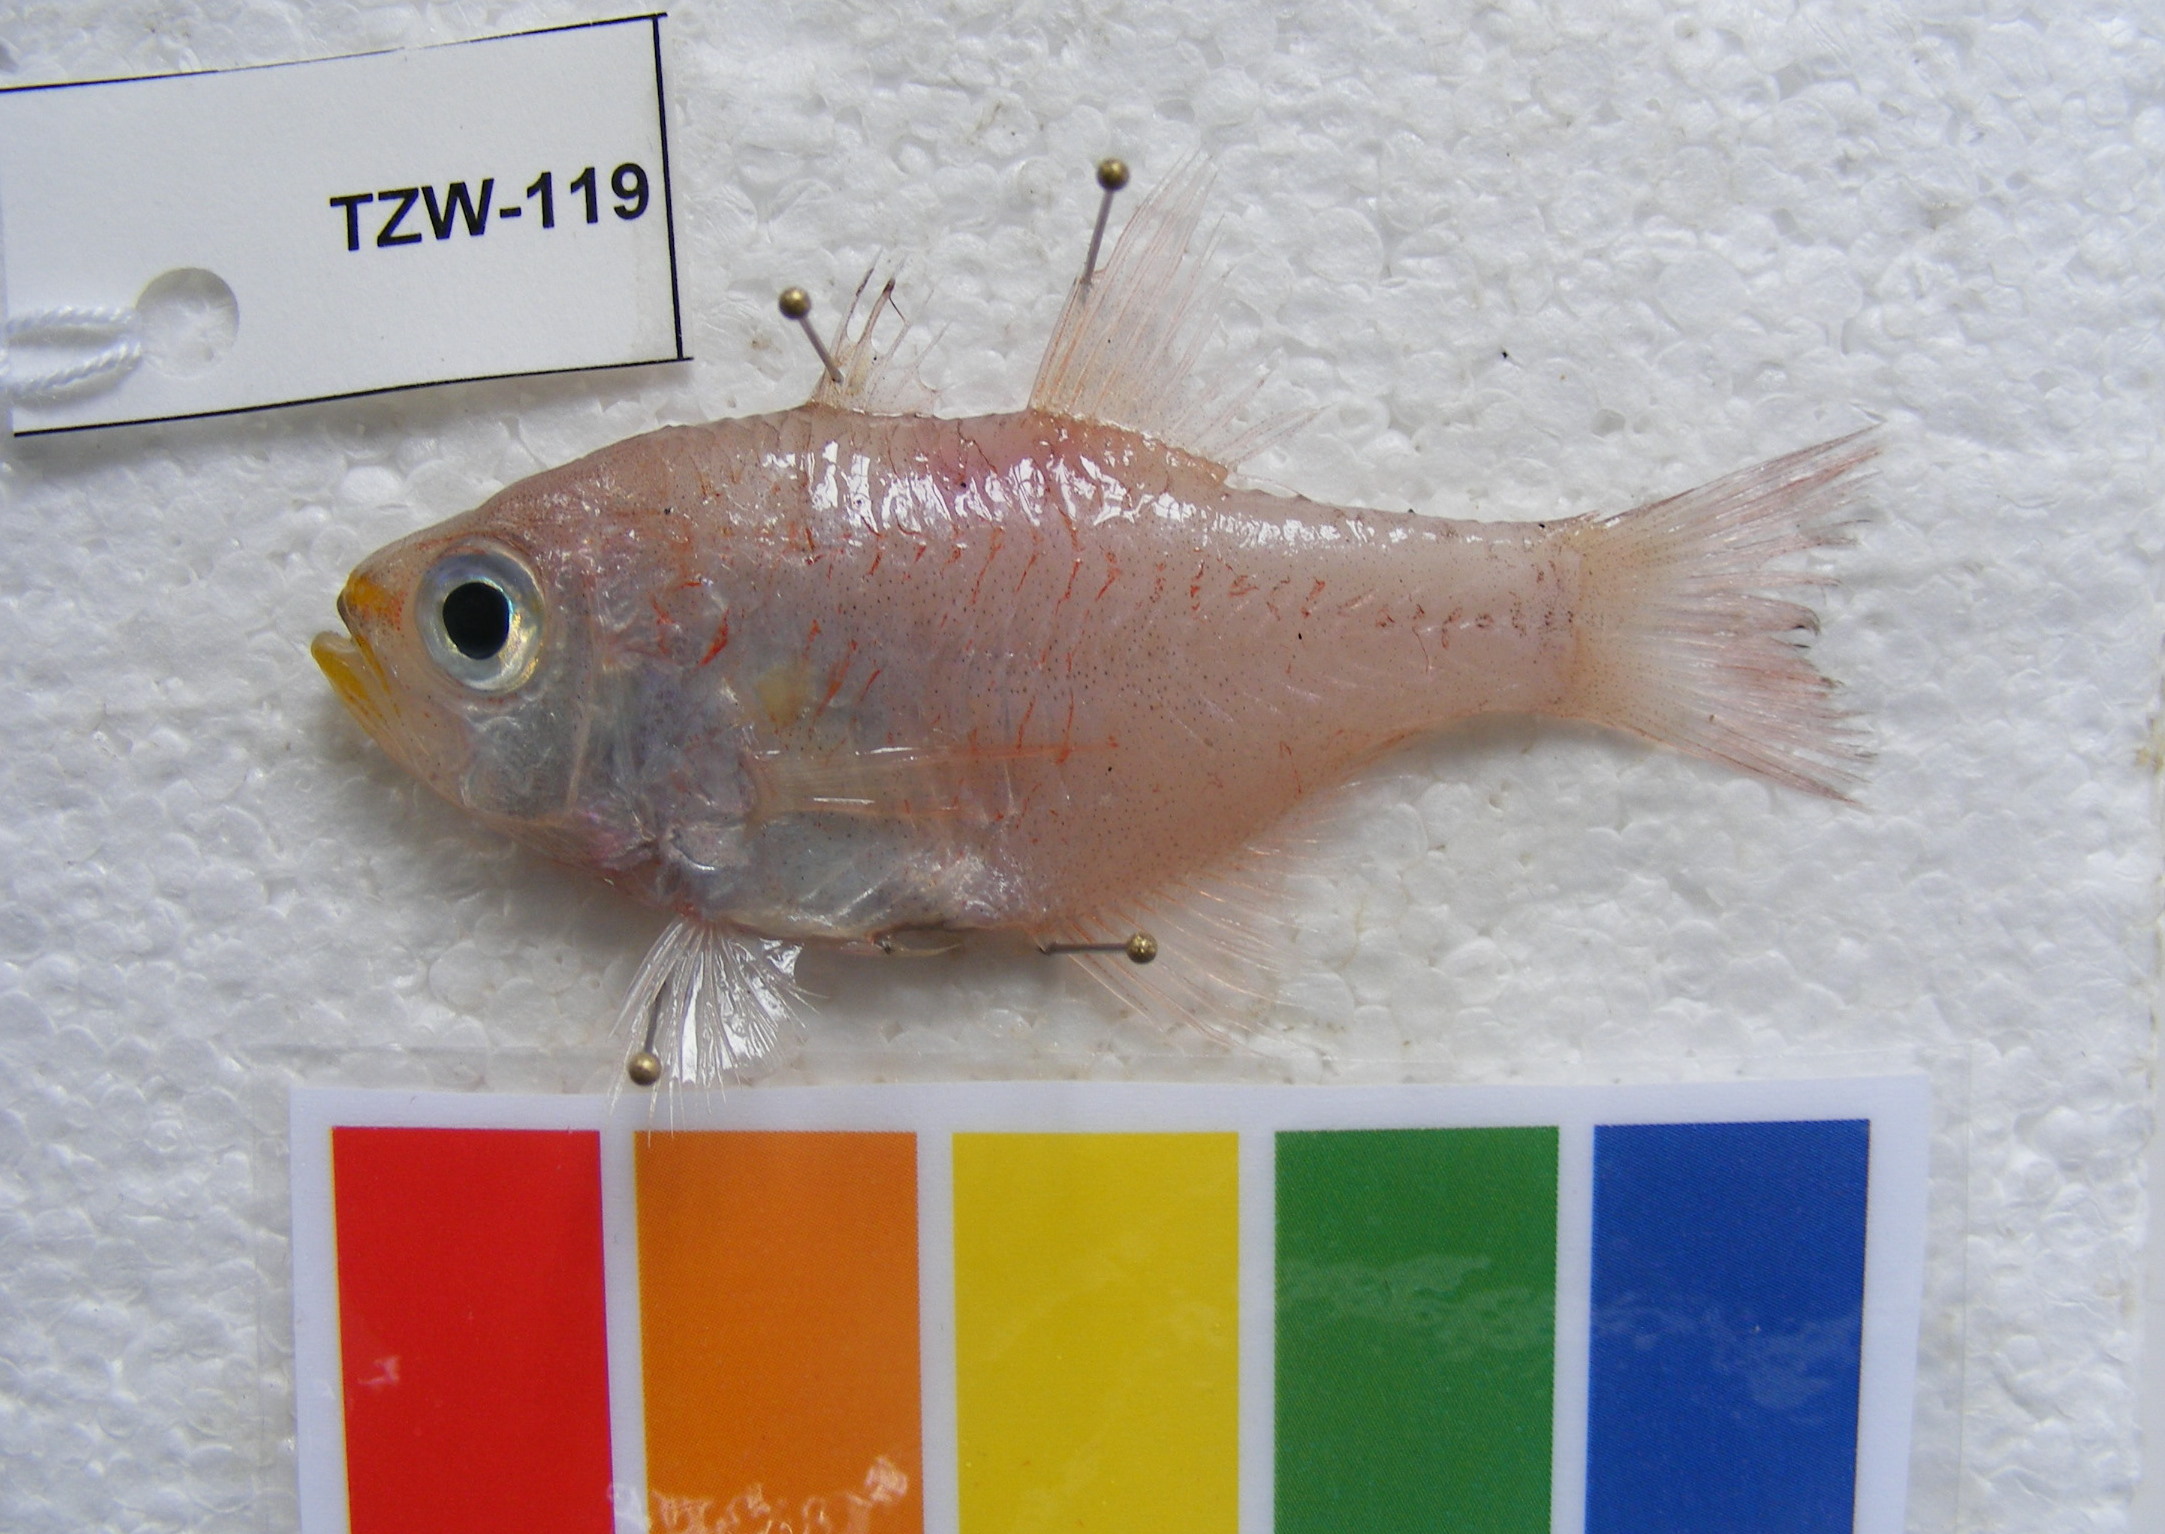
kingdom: Animalia
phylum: Chordata
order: Perciformes
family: Apogonidae
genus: Taeniamia
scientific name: Taeniamia fucata
